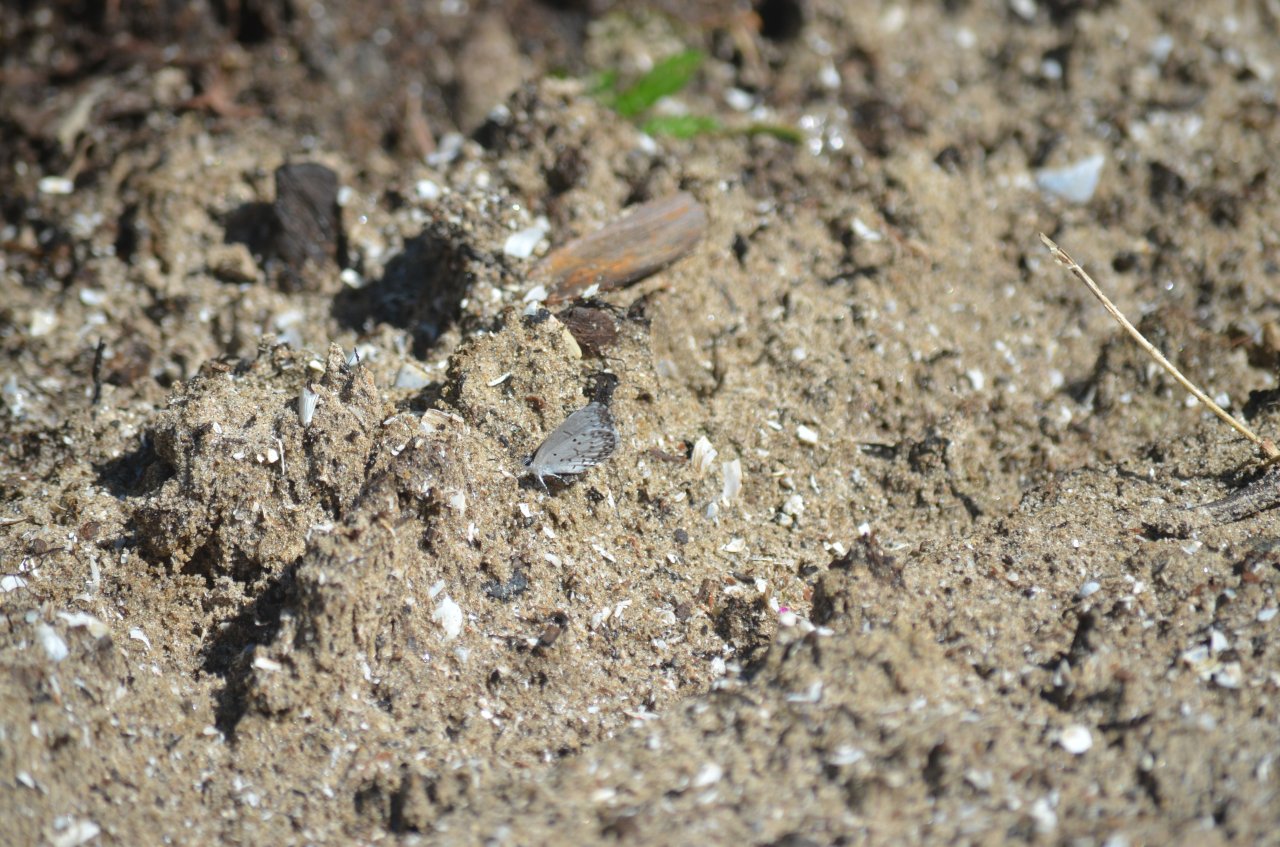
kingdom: Animalia
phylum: Arthropoda
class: Insecta
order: Lepidoptera
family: Lycaenidae
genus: Celastrina
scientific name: Celastrina lucia
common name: Northern Spring Azure
